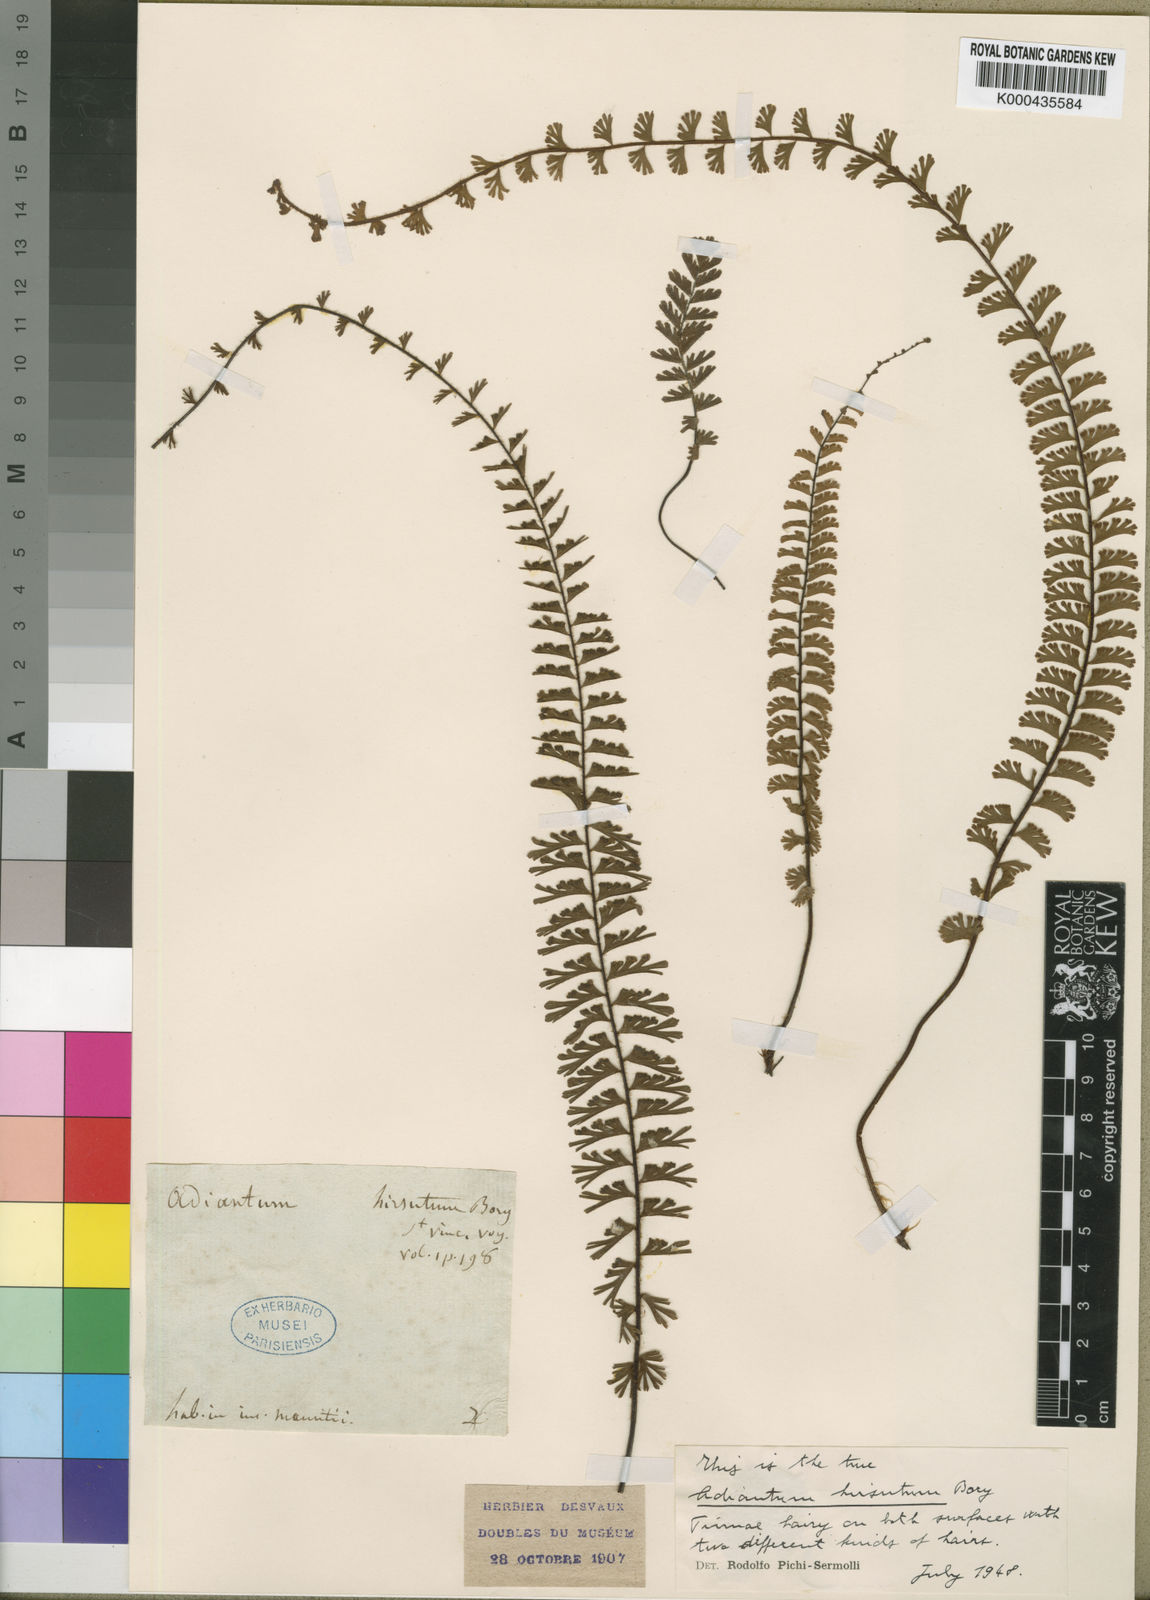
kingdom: Plantae
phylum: Tracheophyta
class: Polypodiopsida
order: Polypodiales
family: Pteridaceae
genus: Adiantum
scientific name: Adiantum hirsutum
